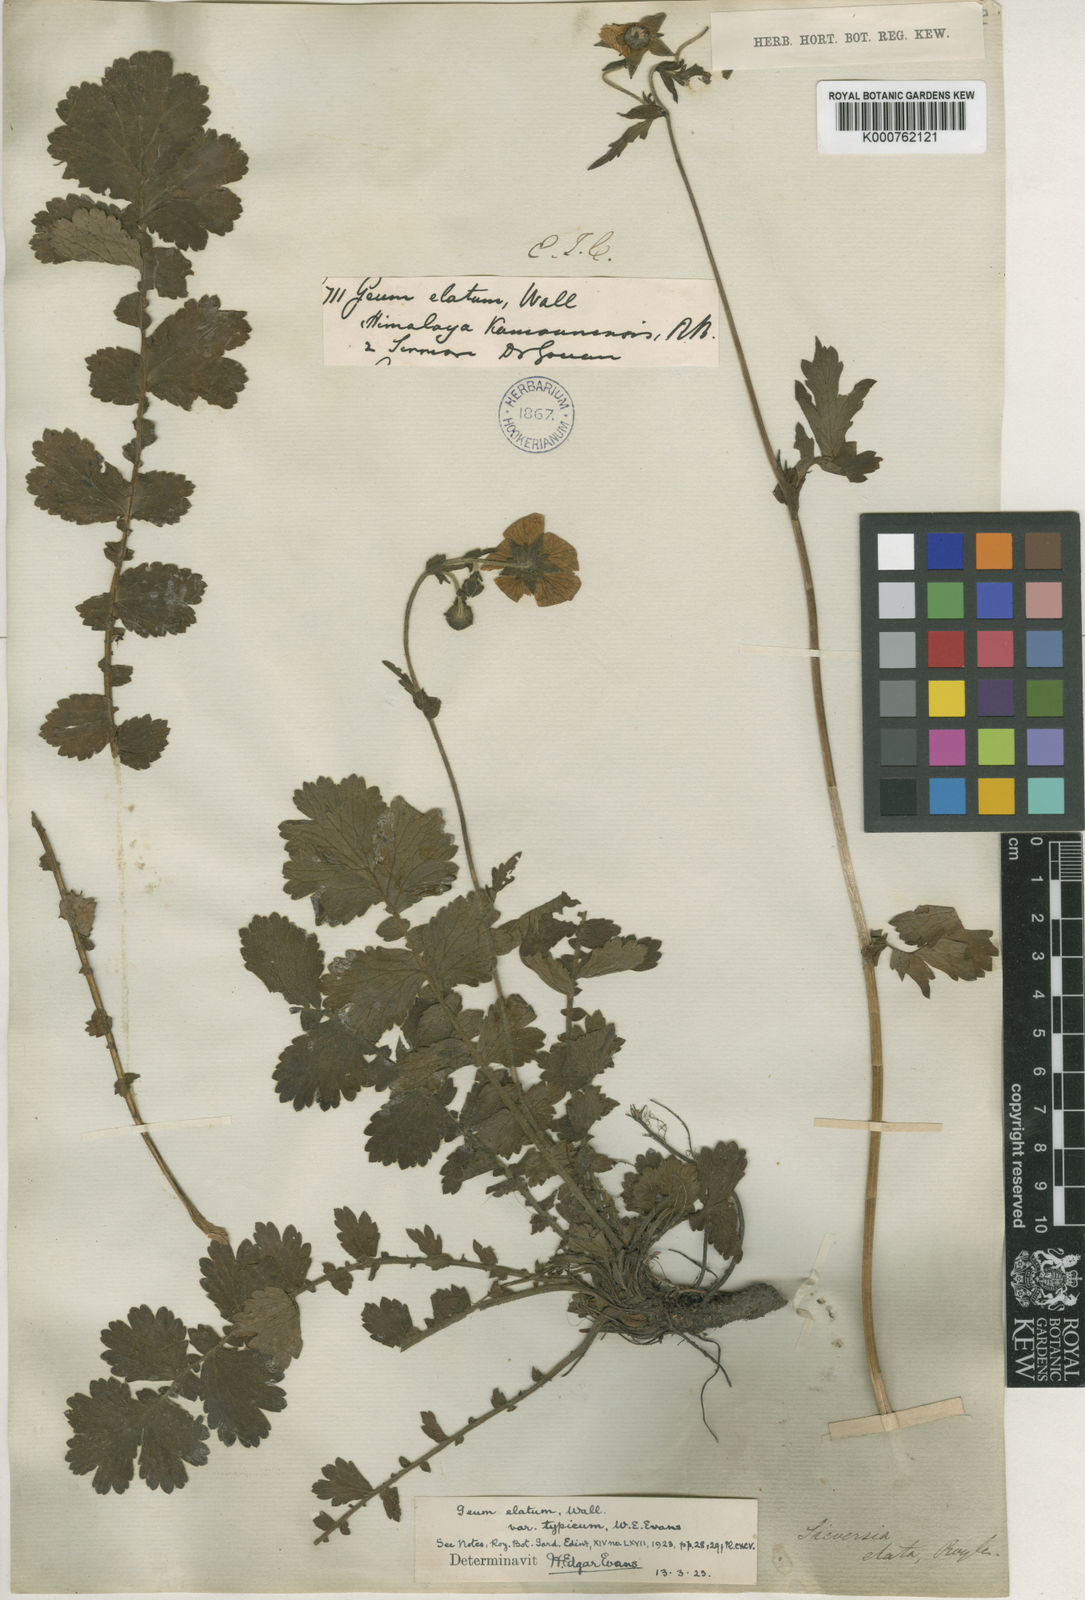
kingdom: Plantae
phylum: Tracheophyta
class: Magnoliopsida
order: Rosales
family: Rosaceae
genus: Geum
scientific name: Geum
